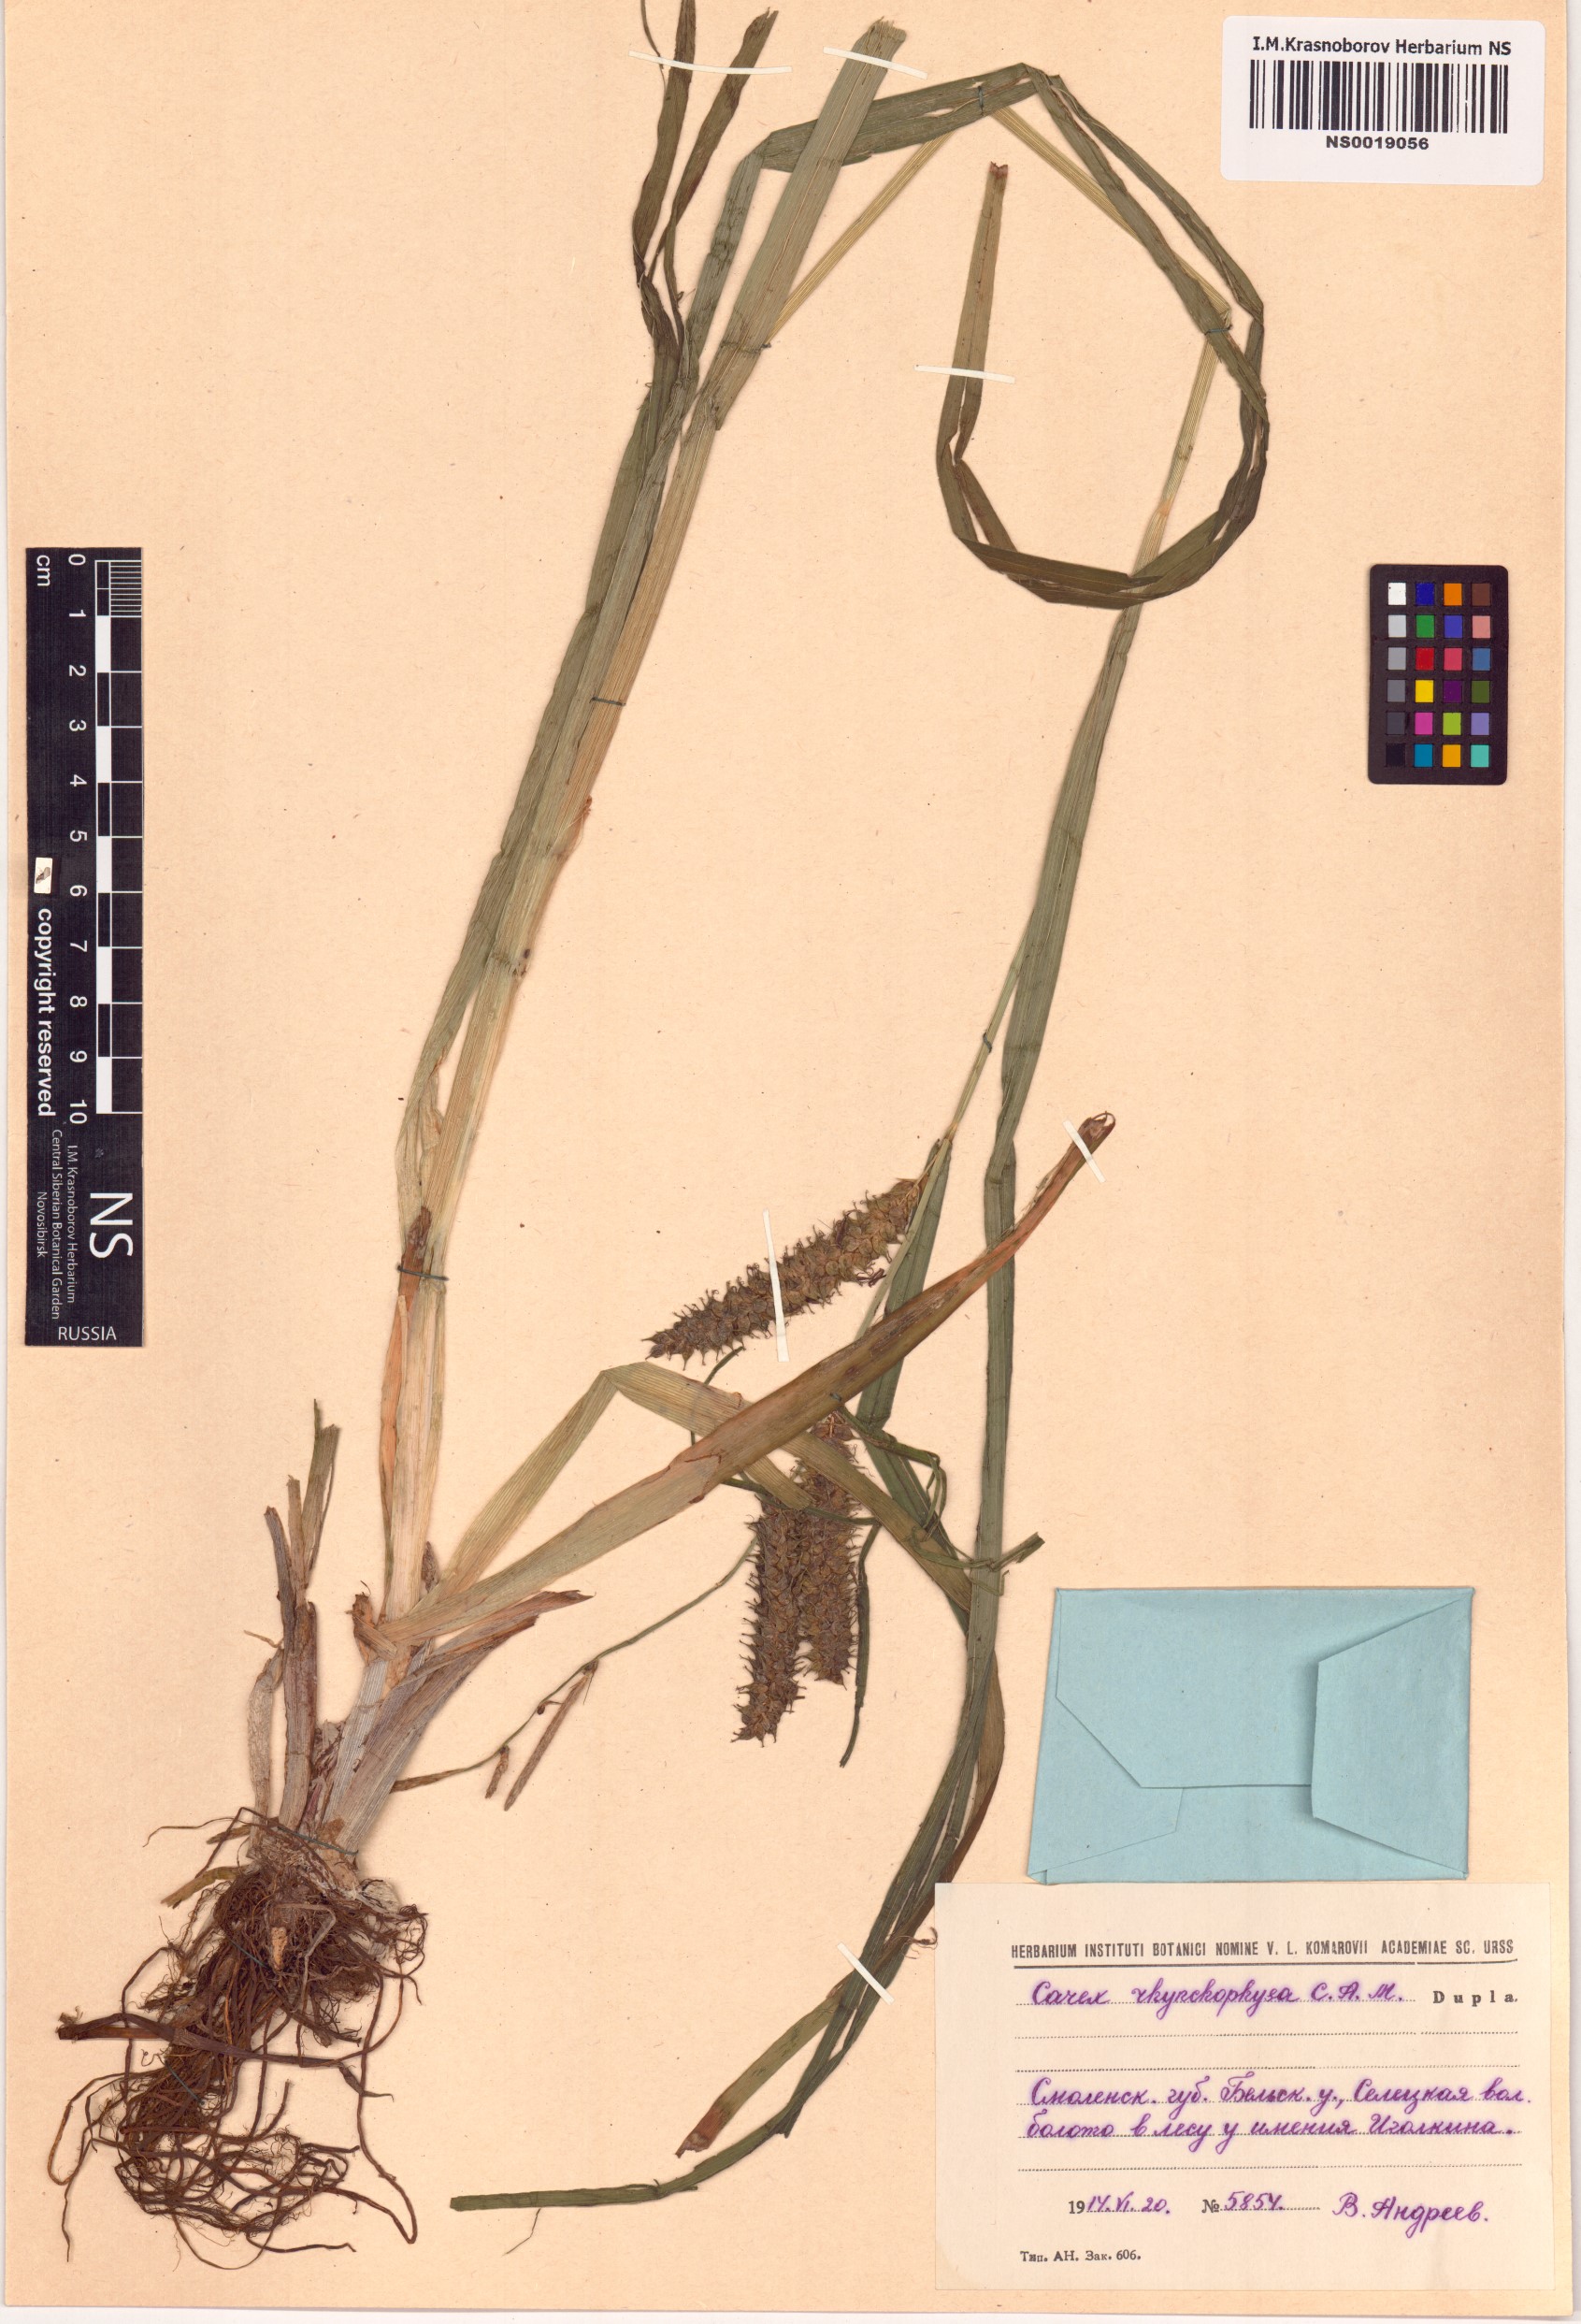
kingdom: Plantae
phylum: Tracheophyta
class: Liliopsida
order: Poales
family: Cyperaceae
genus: Carex
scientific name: Carex utriculata
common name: Beaked sedge
